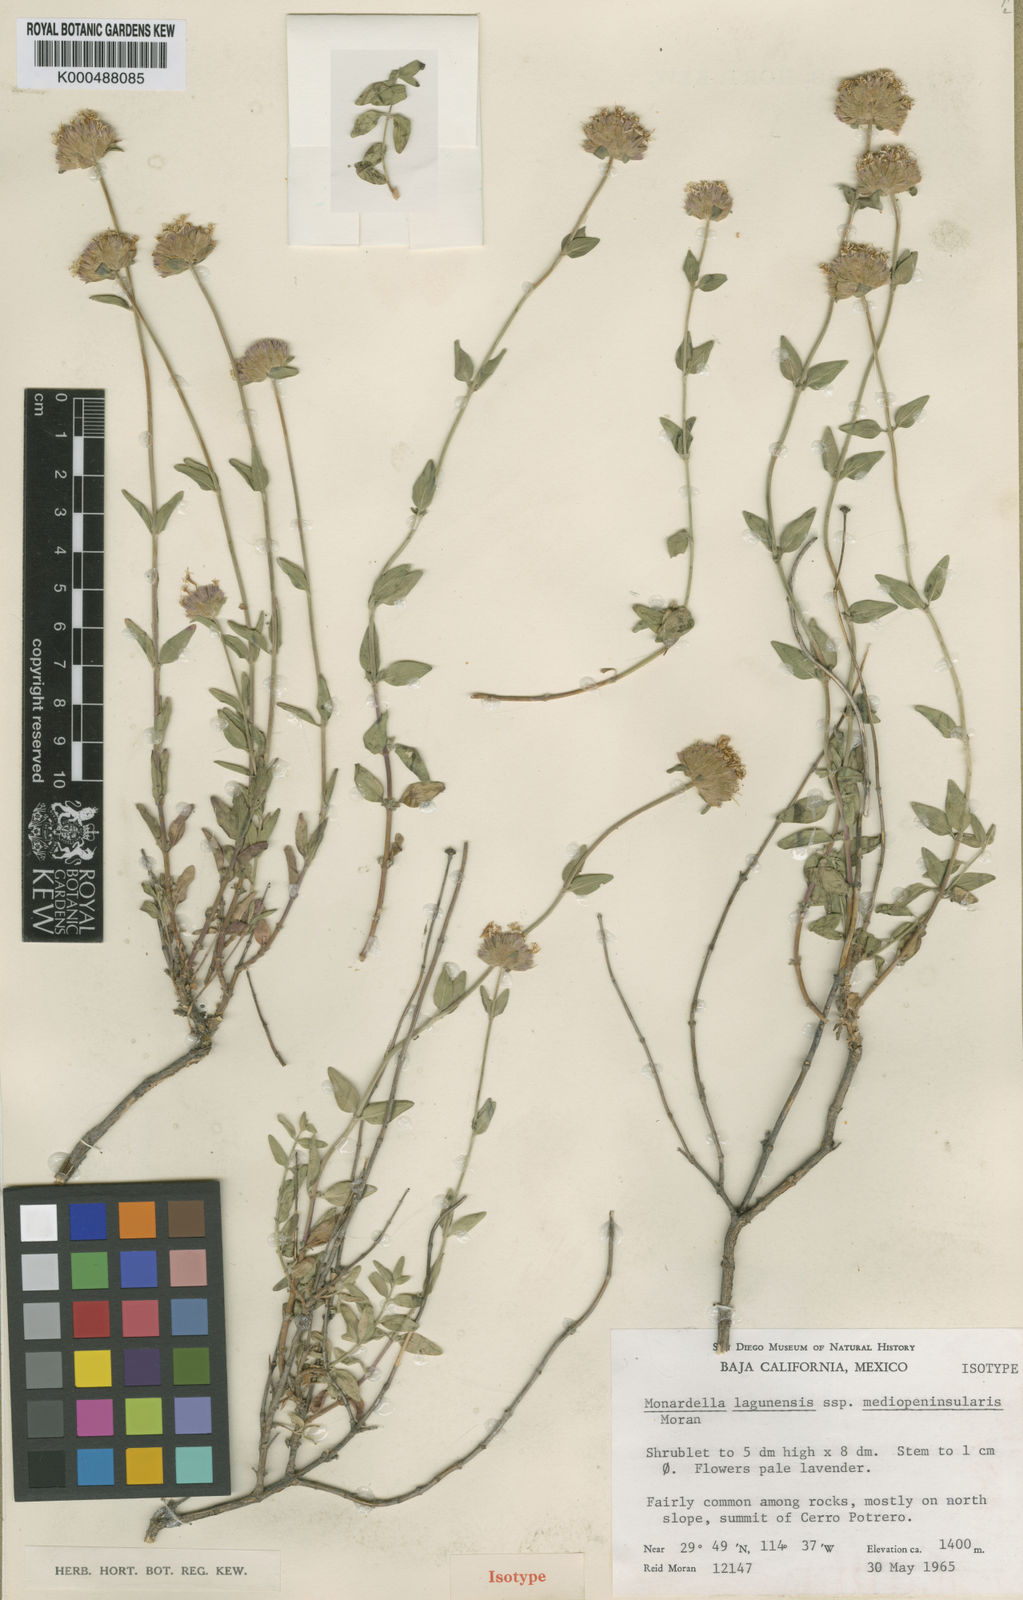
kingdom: Plantae
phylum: Tracheophyta
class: Magnoliopsida
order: Lamiales
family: Lamiaceae
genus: Monardella
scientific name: Monardella lagunensis
